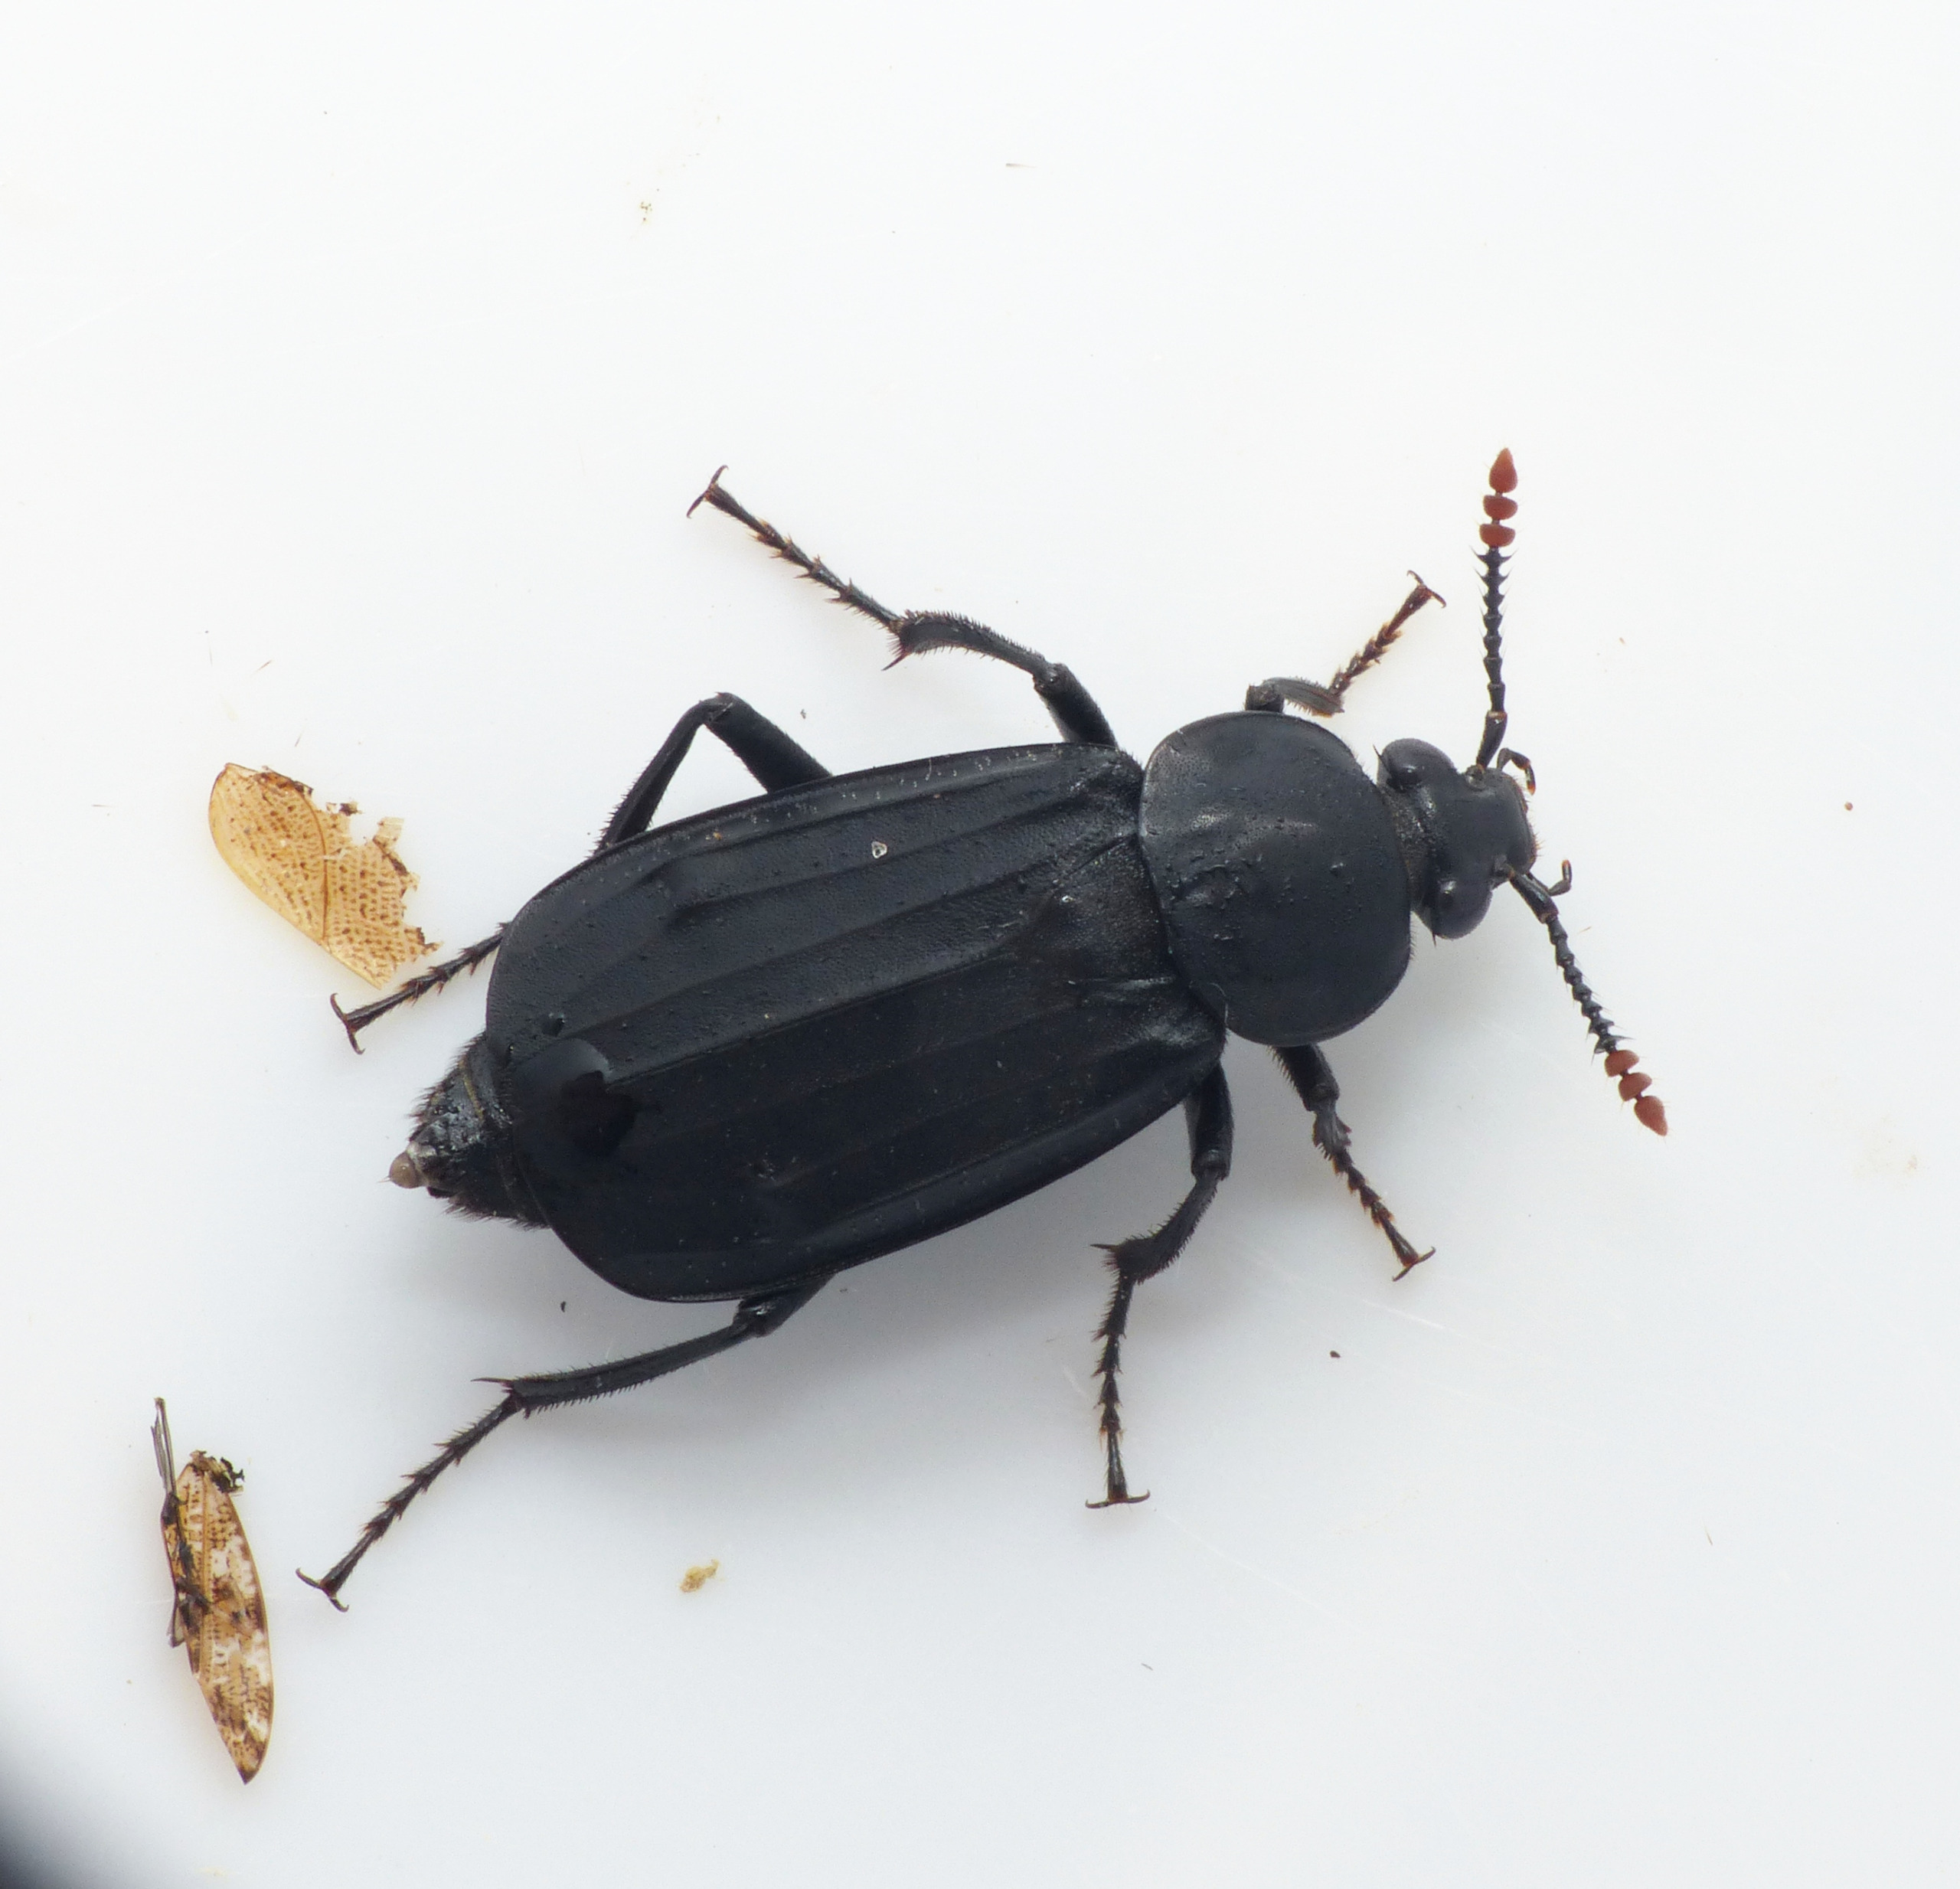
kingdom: Animalia
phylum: Arthropoda
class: Insecta
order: Coleoptera
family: Staphylinidae
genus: Necrodes
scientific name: Necrodes littoralis
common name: Ligrøver
